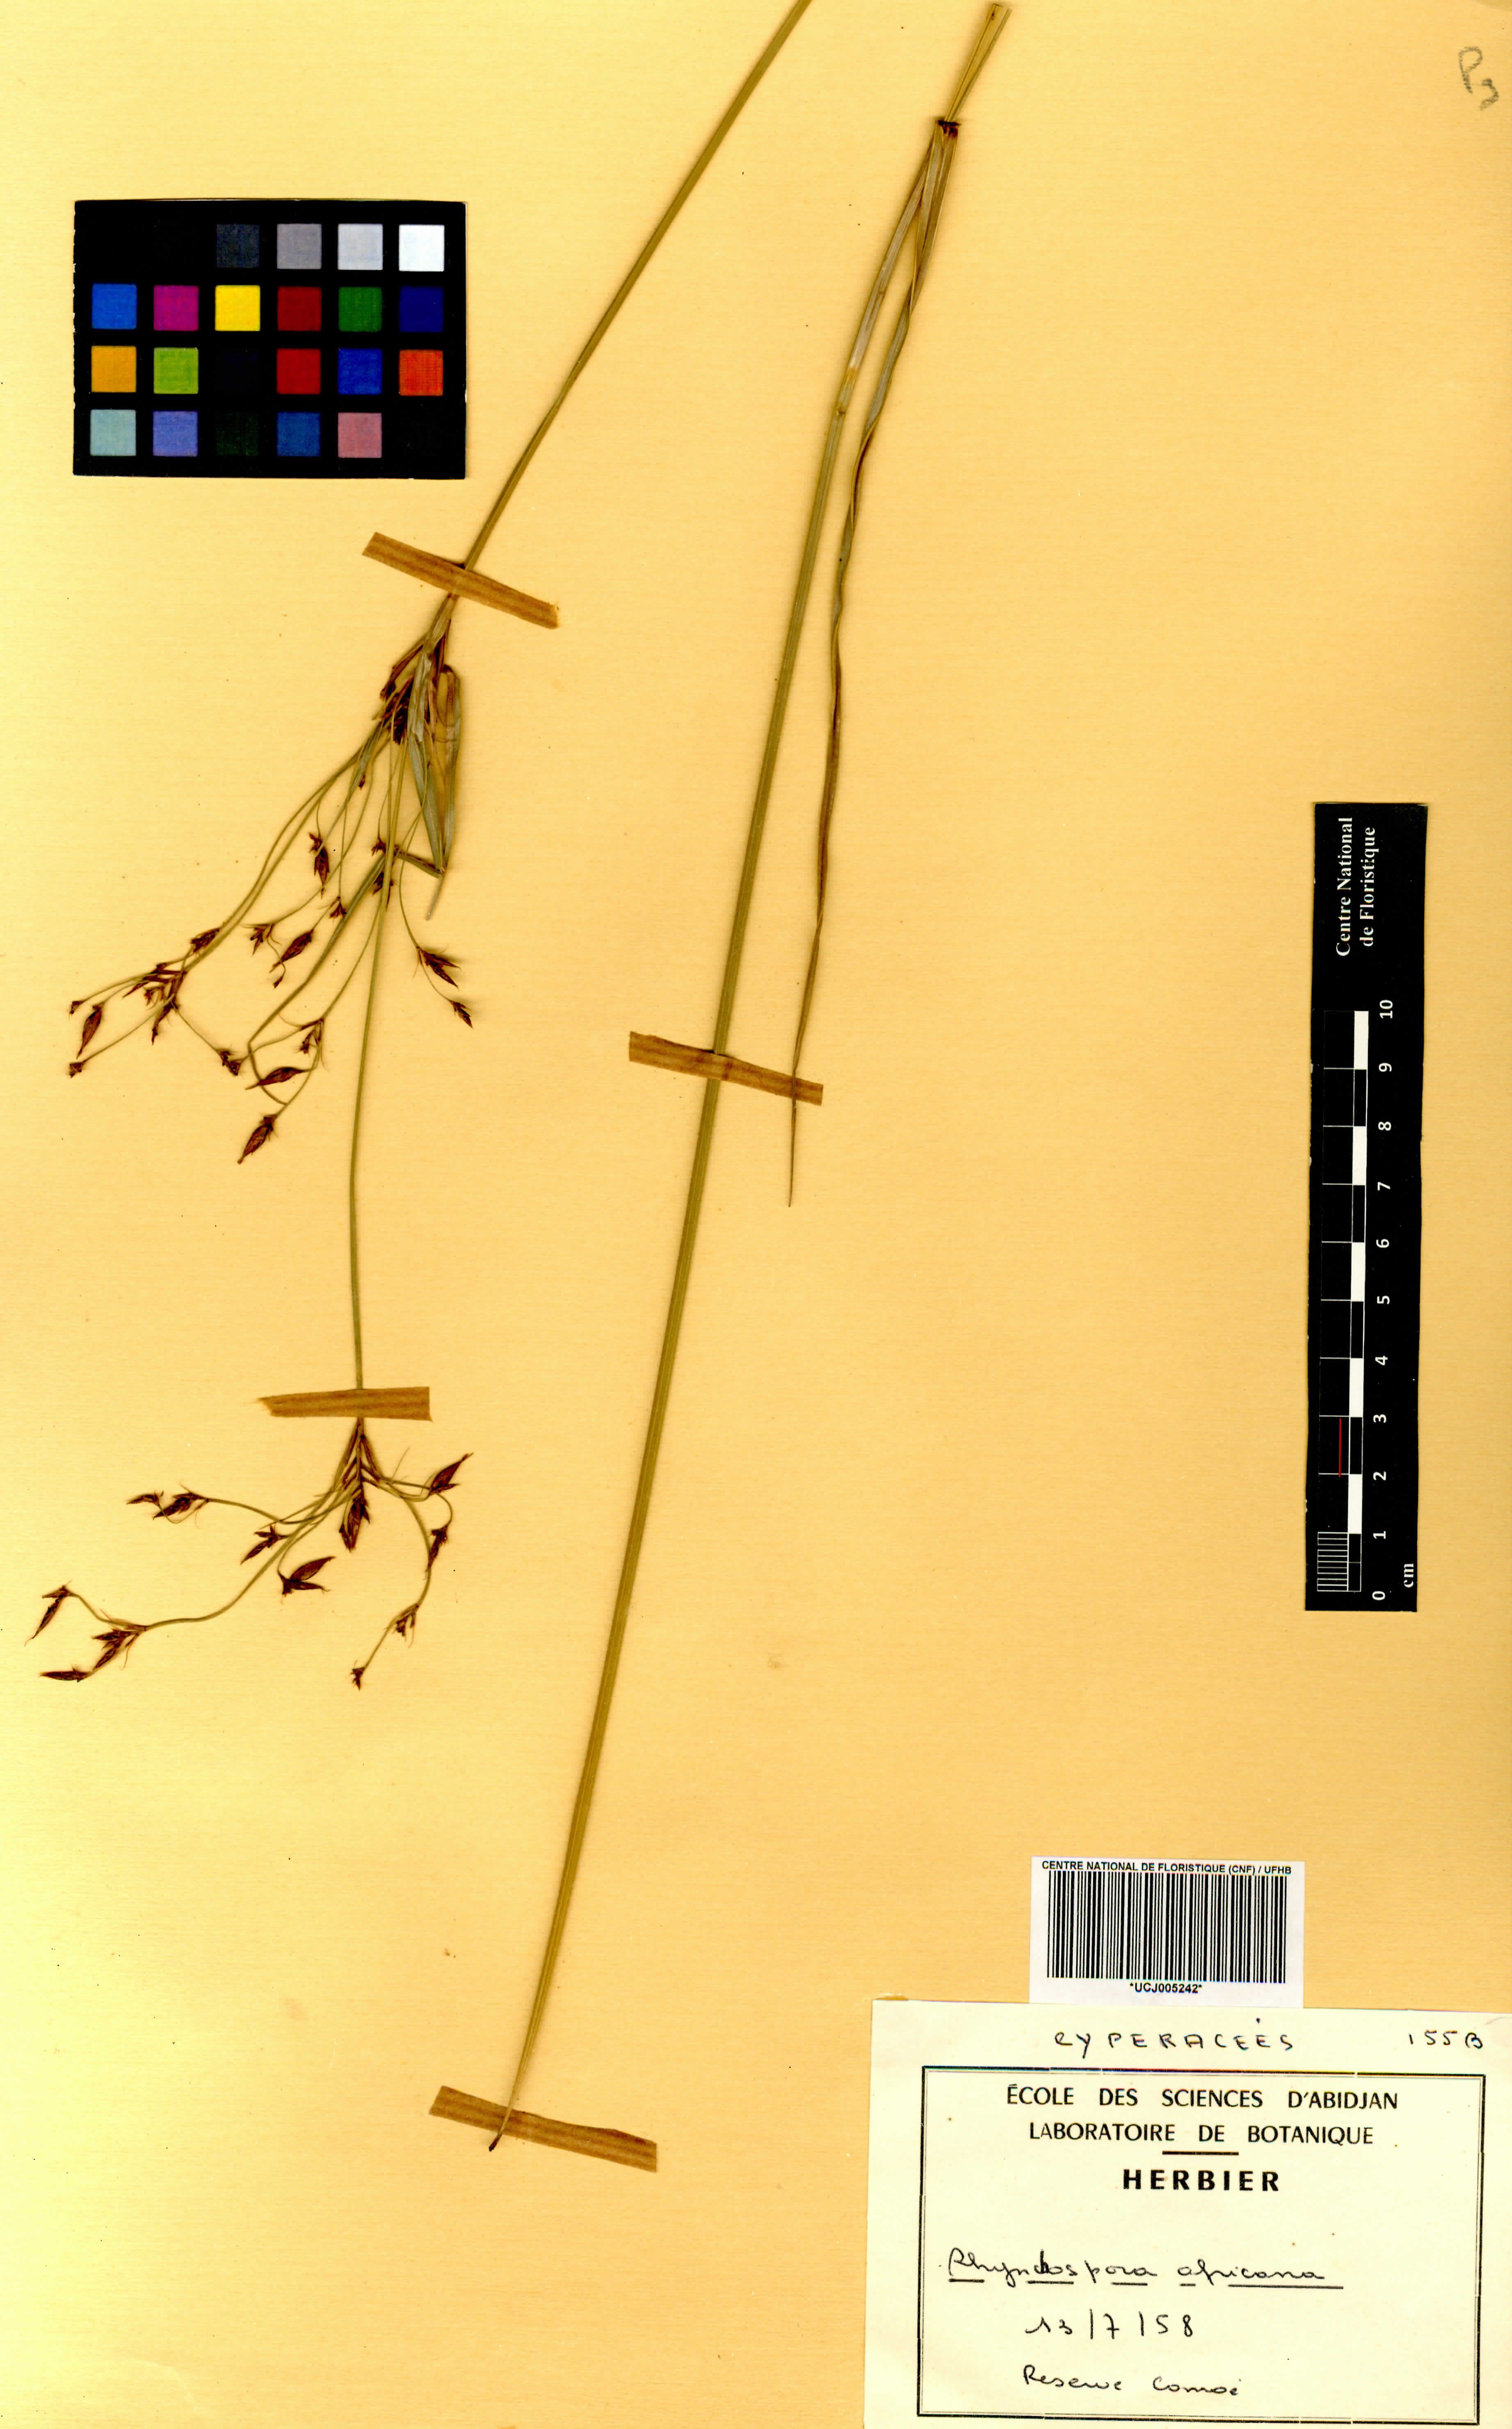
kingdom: Plantae
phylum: Tracheophyta
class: Liliopsida
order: Poales
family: Cyperaceae
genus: Rhynchospora
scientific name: Rhynchospora angolensis
